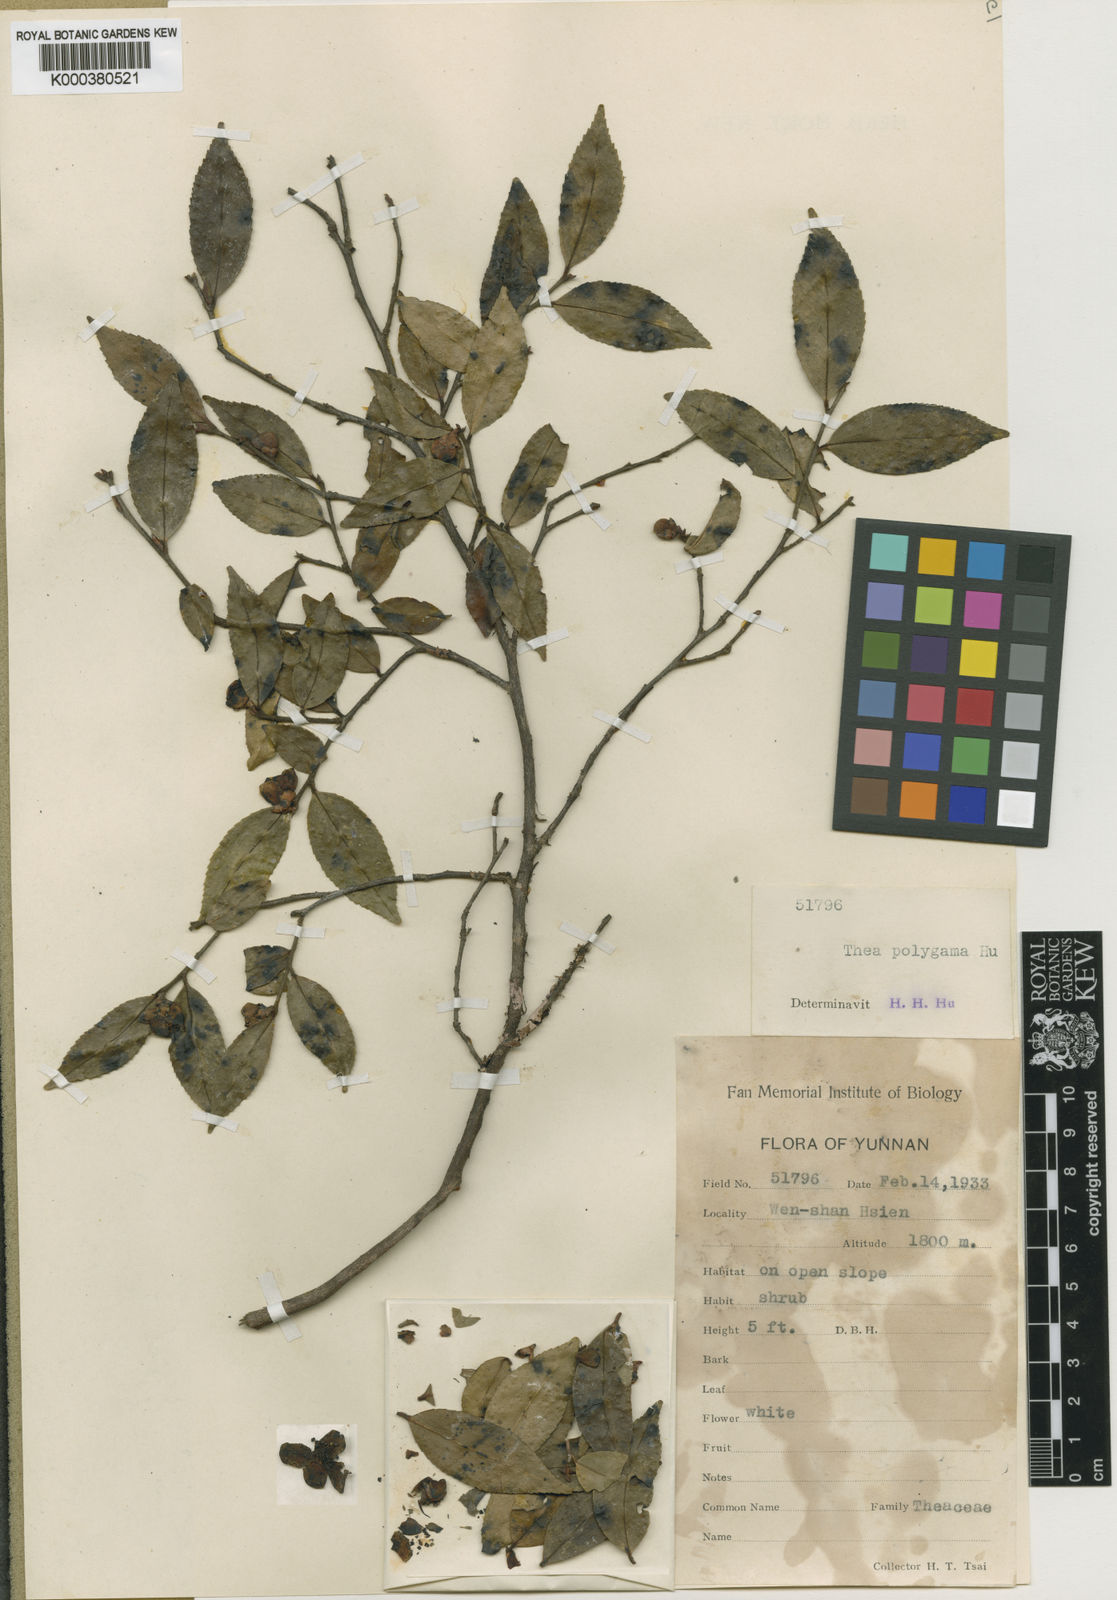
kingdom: Plantae
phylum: Tracheophyta
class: Magnoliopsida
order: Ericales
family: Theaceae
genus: Camellia
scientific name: Camellia forrestii
